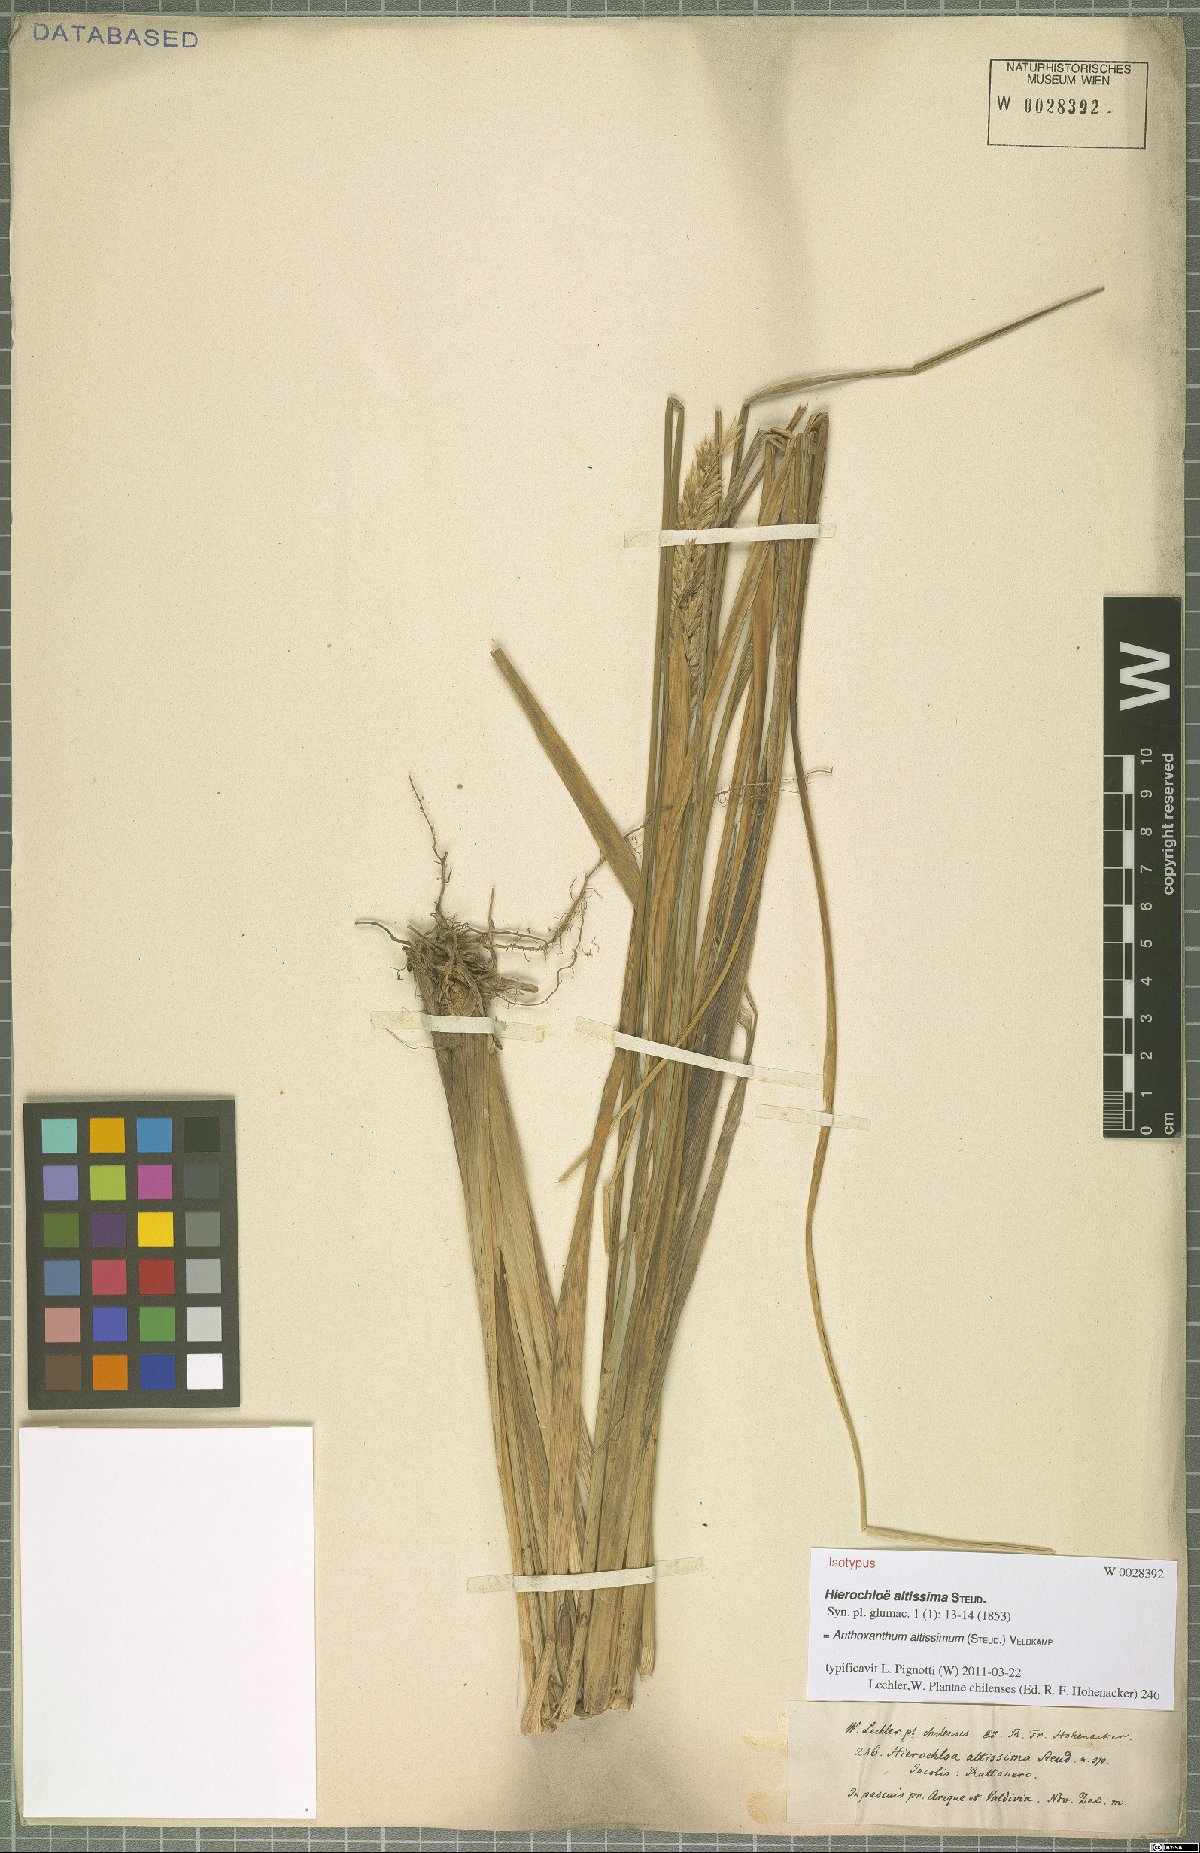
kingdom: Plantae
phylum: Tracheophyta
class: Liliopsida
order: Poales
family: Poaceae
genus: Anthoxanthum
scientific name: Anthoxanthum utriculatum
